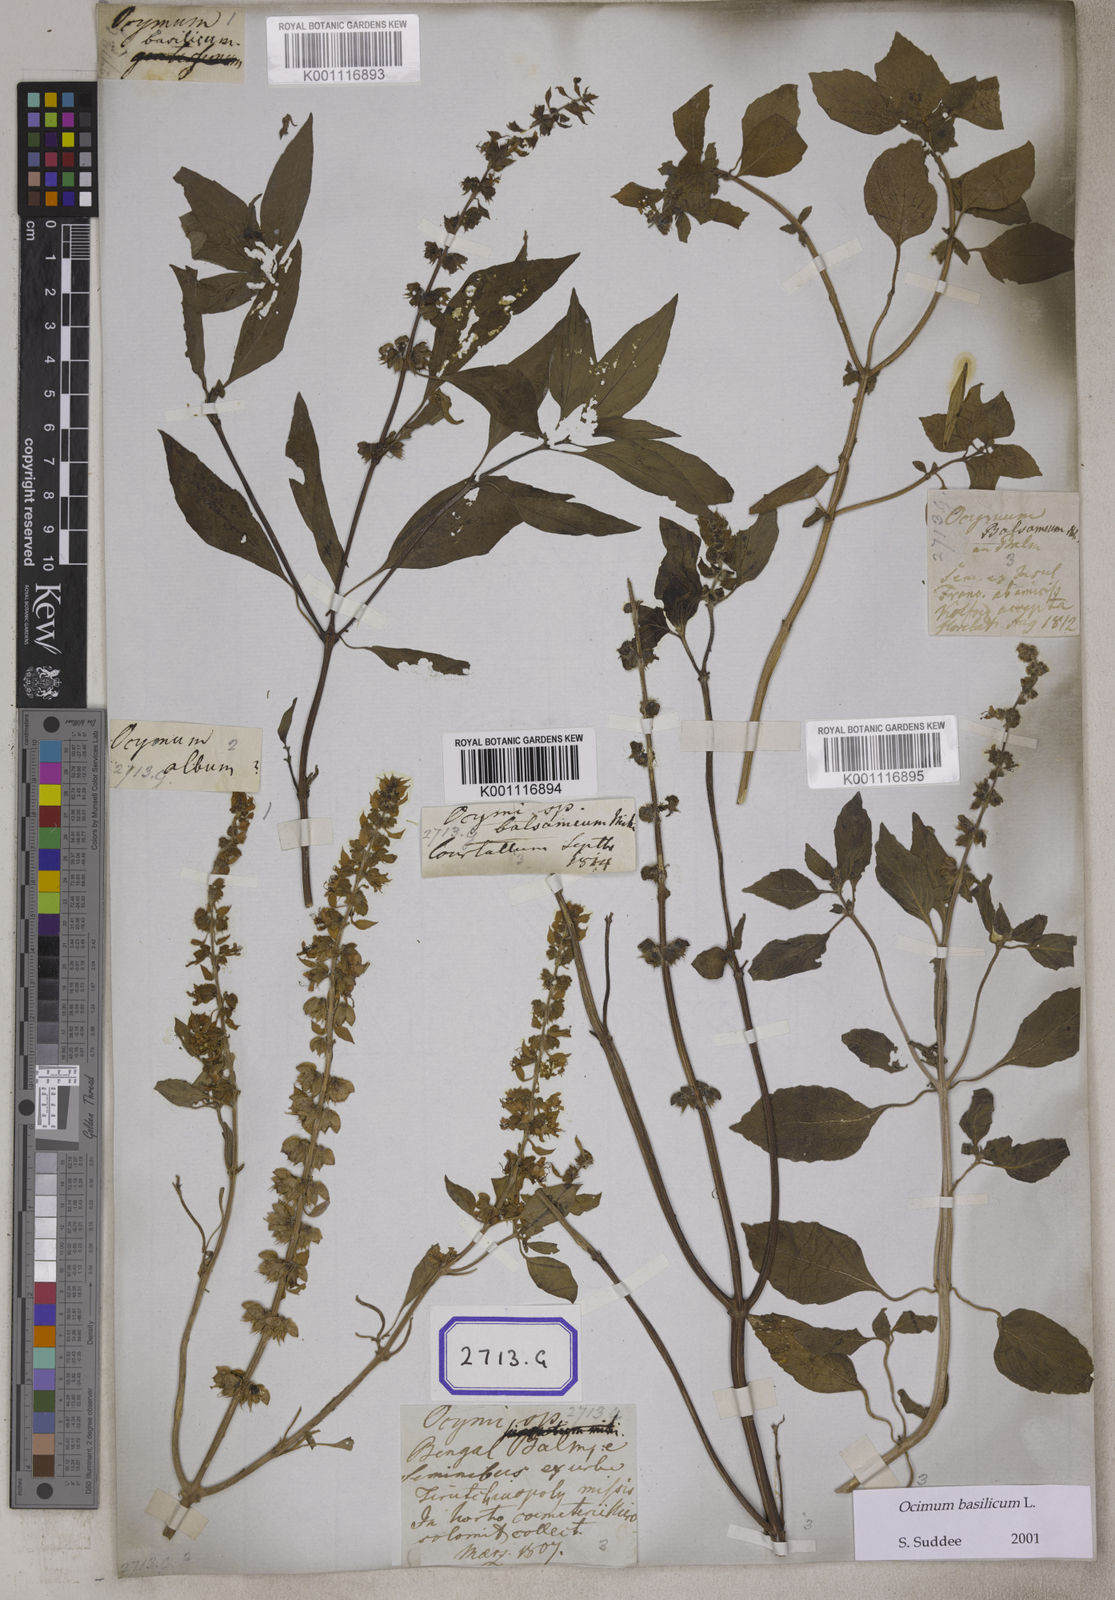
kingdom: Plantae
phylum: Tracheophyta
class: Magnoliopsida
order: Lamiales
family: Lamiaceae
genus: Ocimum
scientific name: Ocimum
